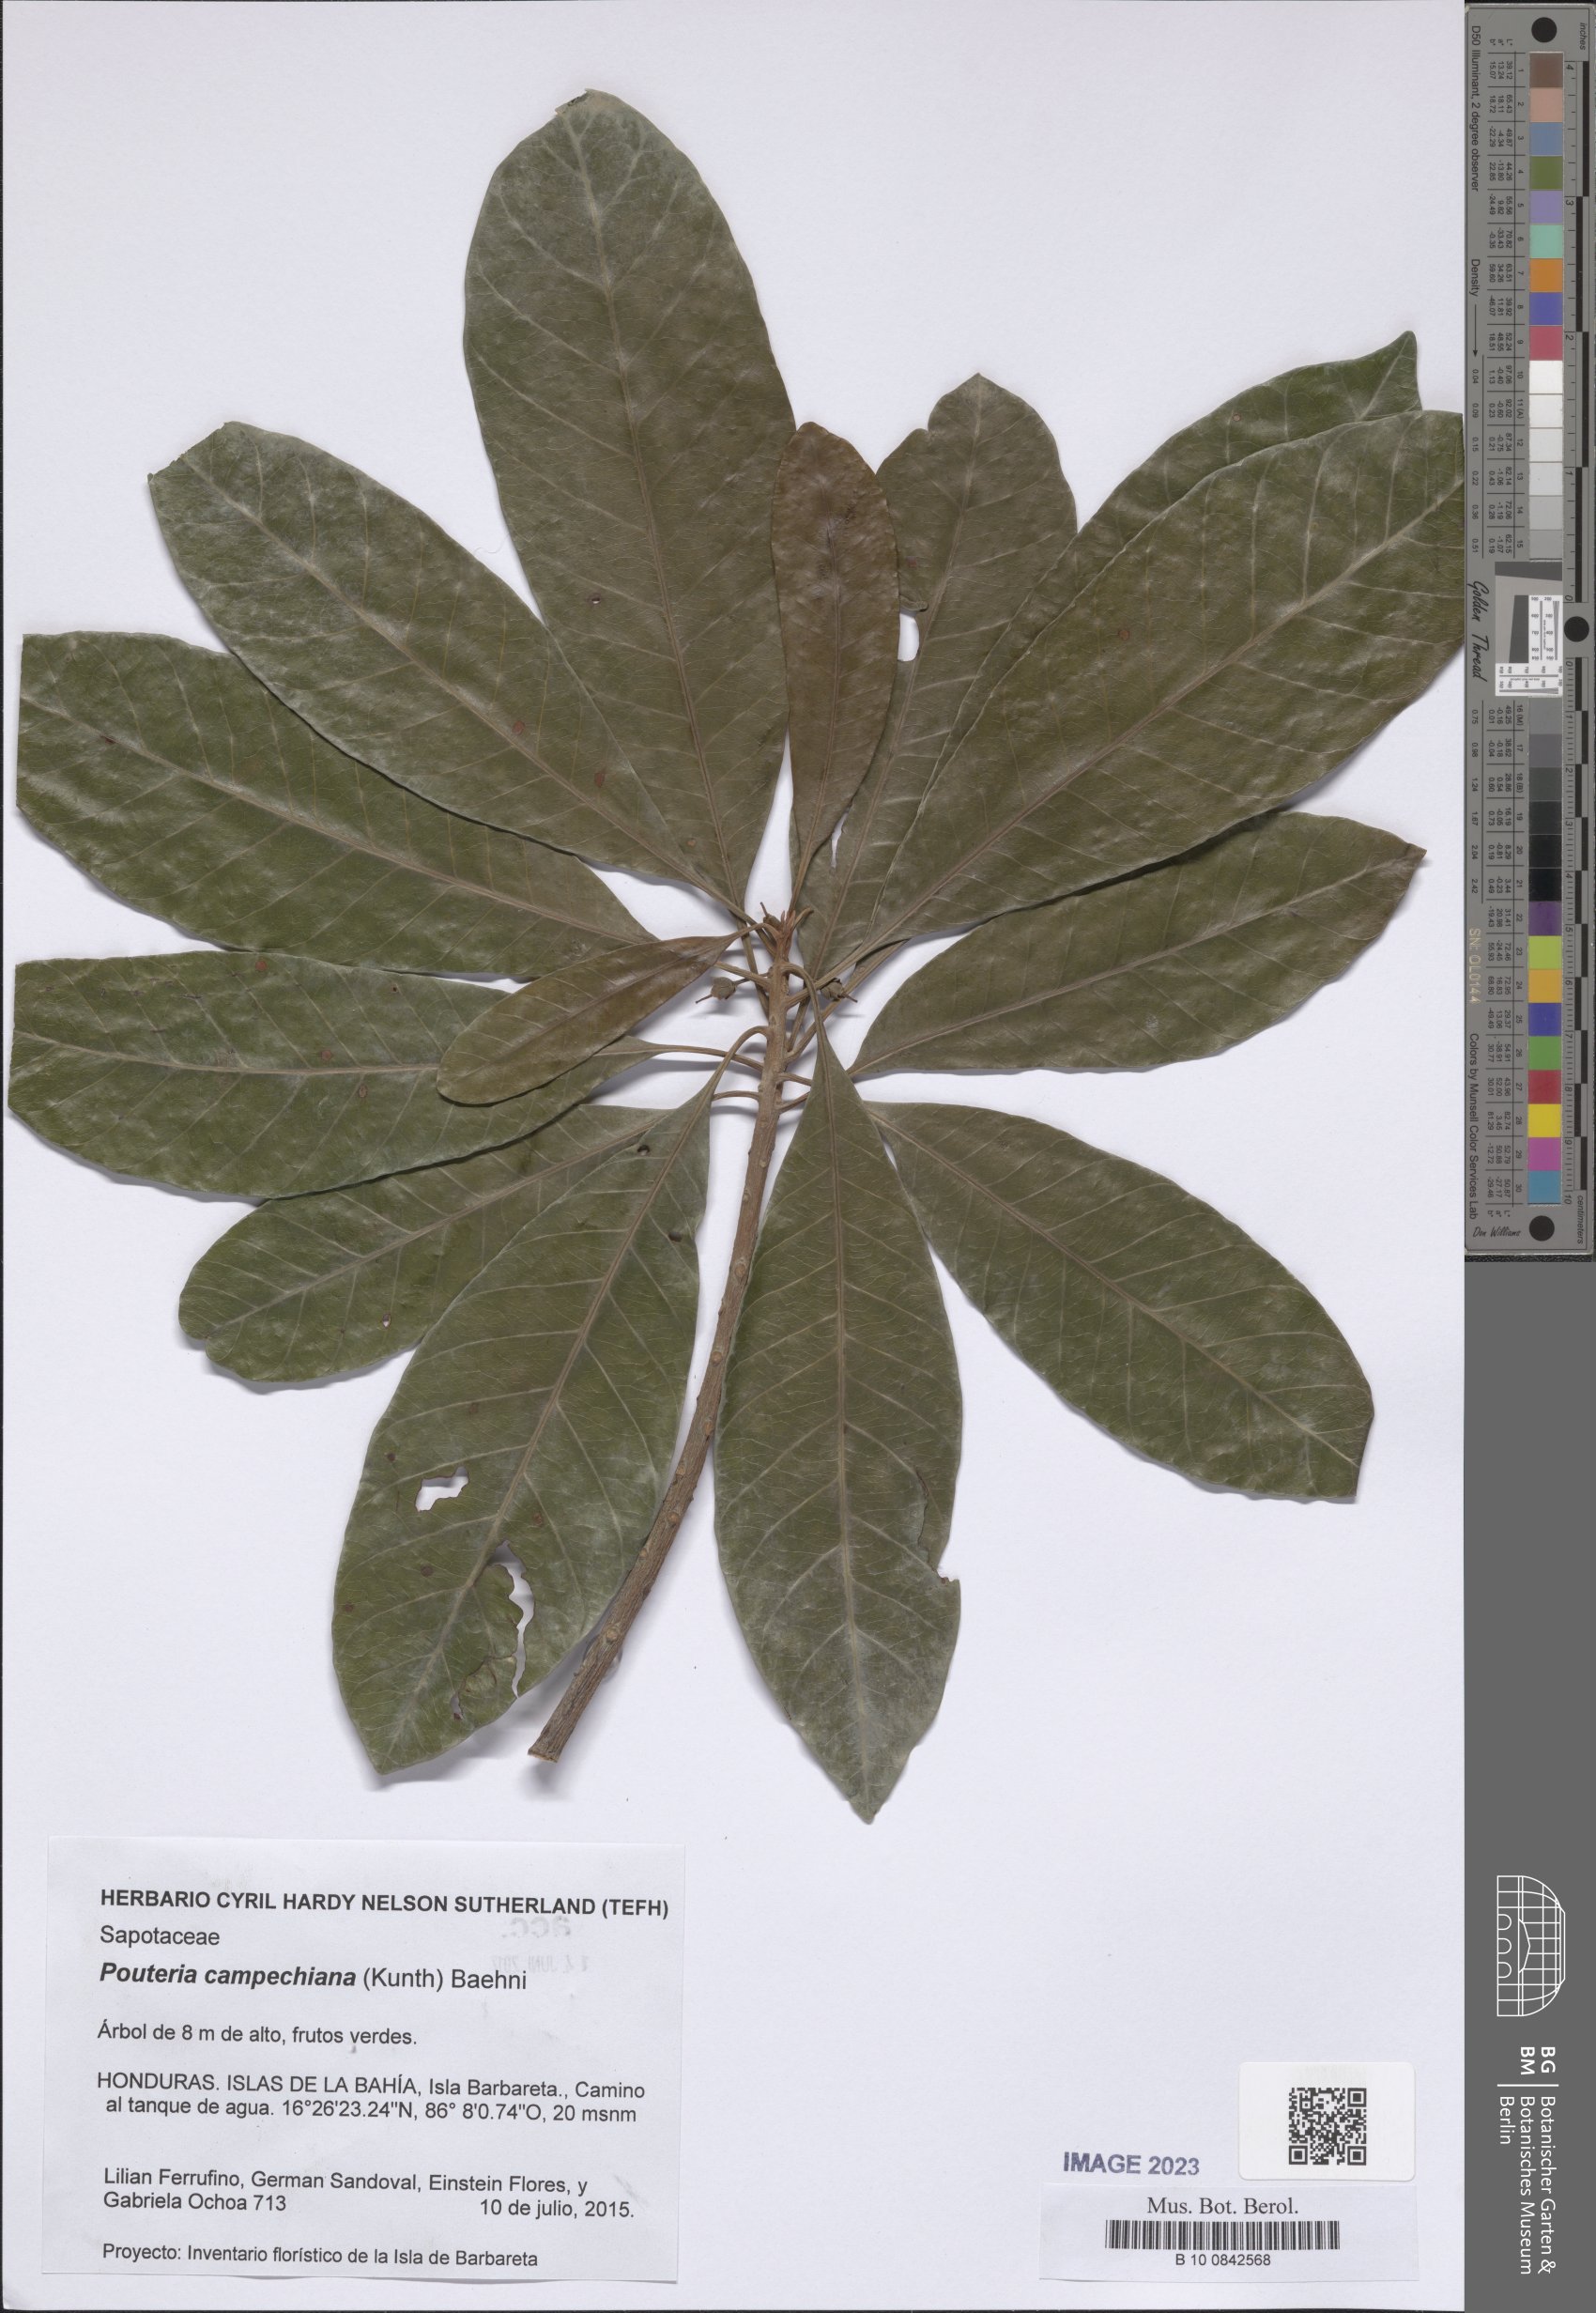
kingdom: Plantae
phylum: Tracheophyta
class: Magnoliopsida
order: Ericales
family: Sapotaceae
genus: Pouteria
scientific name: Pouteria campechiana
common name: Canistel
